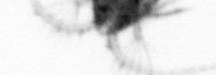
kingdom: Animalia
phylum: Arthropoda
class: Copepoda
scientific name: Copepoda
